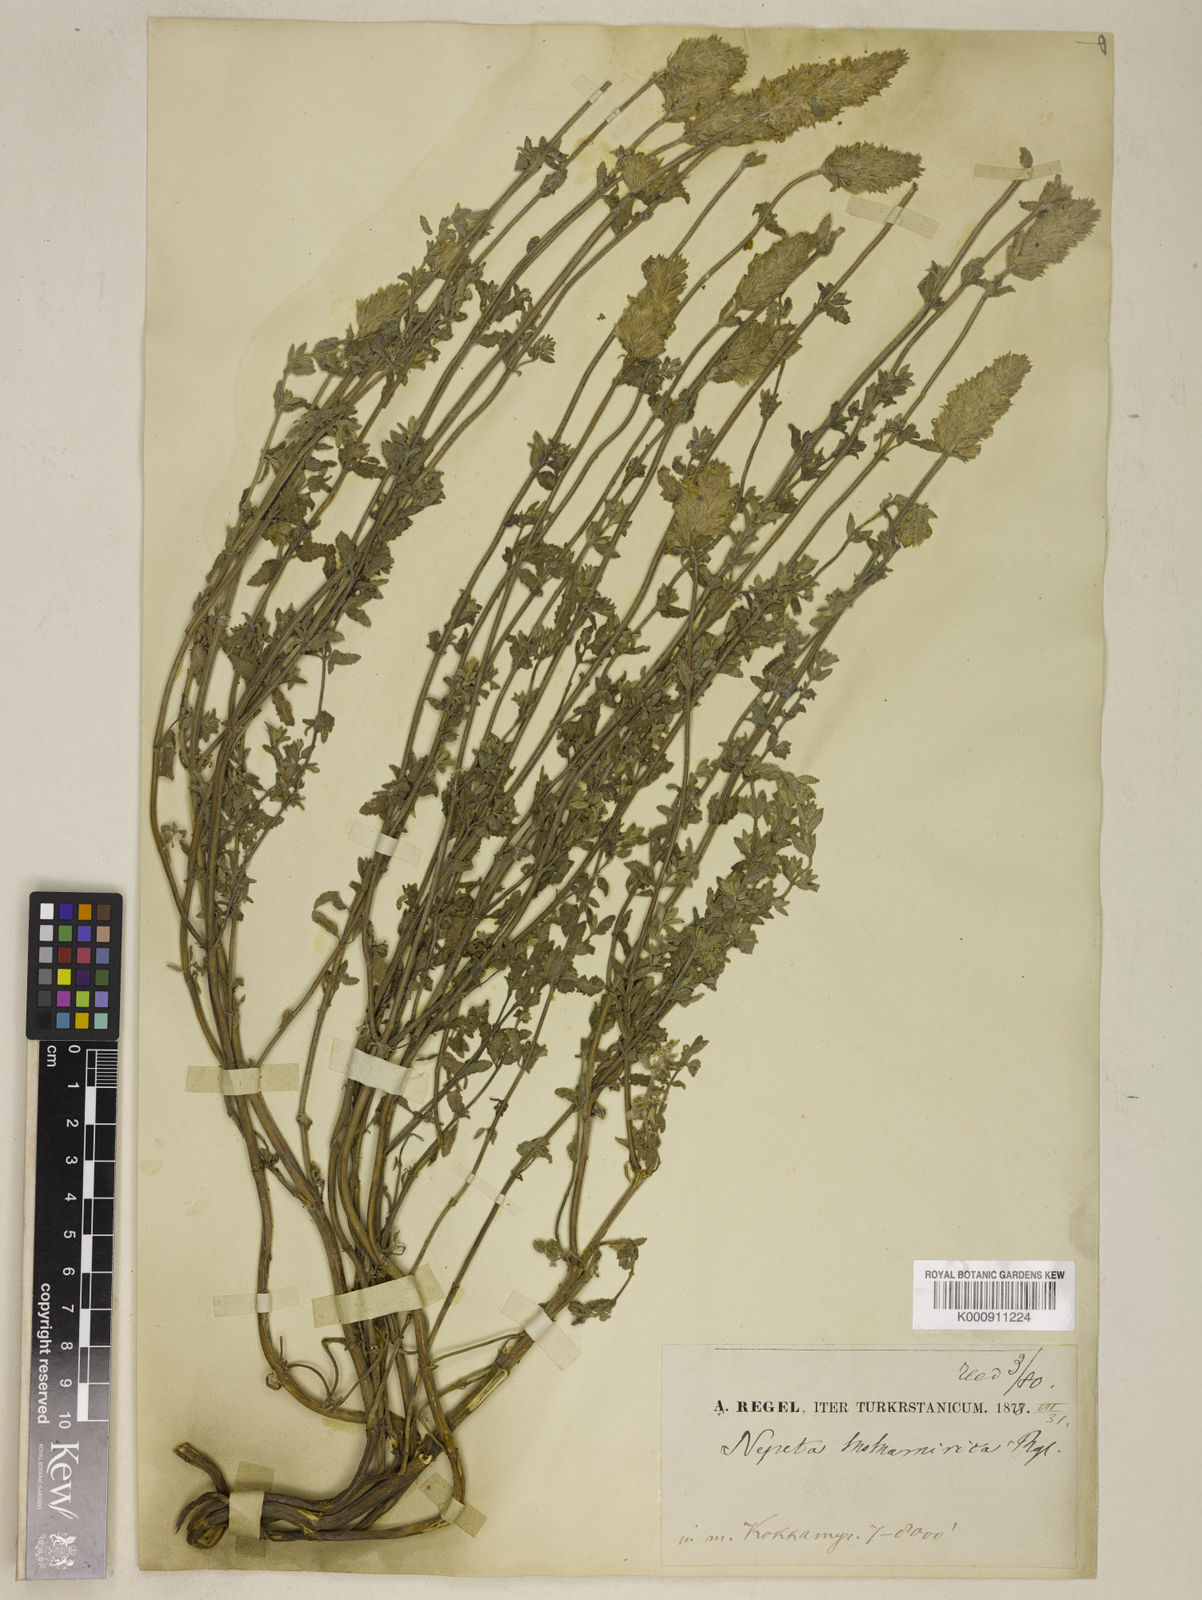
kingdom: Plantae
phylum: Tracheophyta
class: Magnoliopsida
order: Lamiales
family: Lamiaceae
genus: Nepeta
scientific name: Nepeta spathulifera
